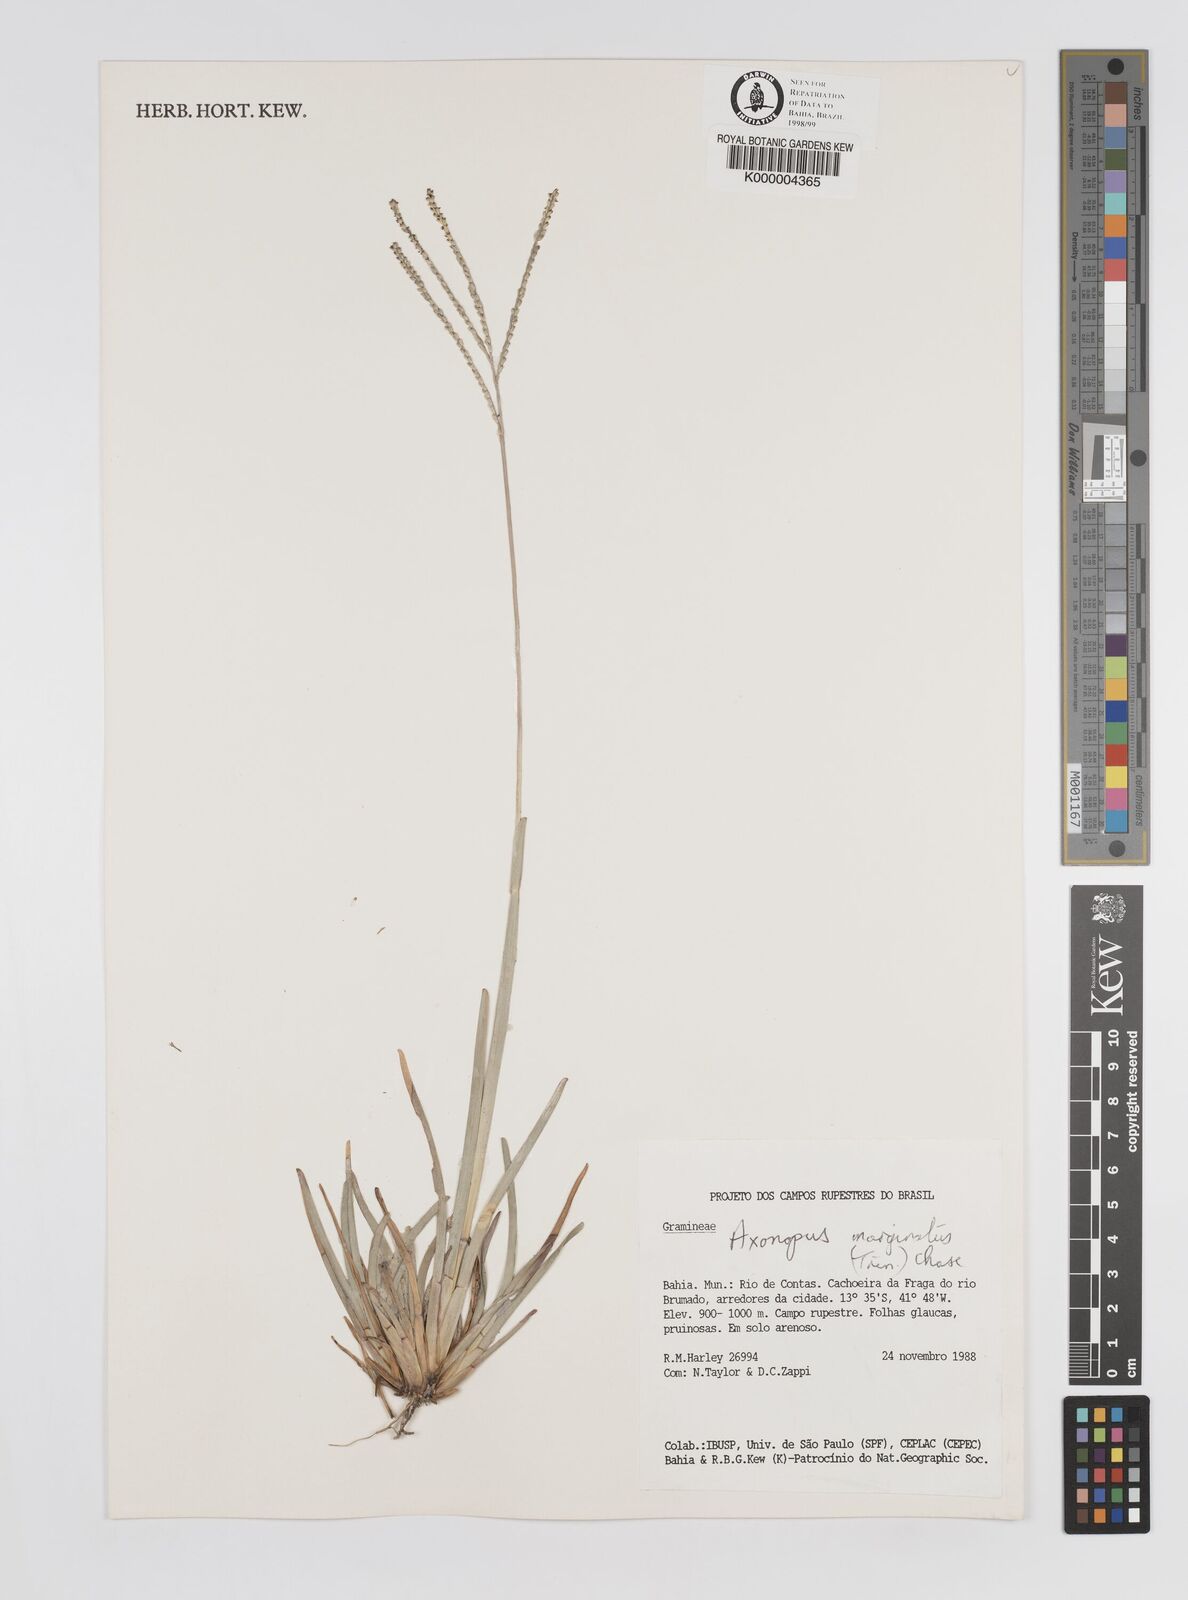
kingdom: Plantae
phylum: Tracheophyta
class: Liliopsida
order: Poales
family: Poaceae
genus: Axonopus
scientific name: Axonopus
